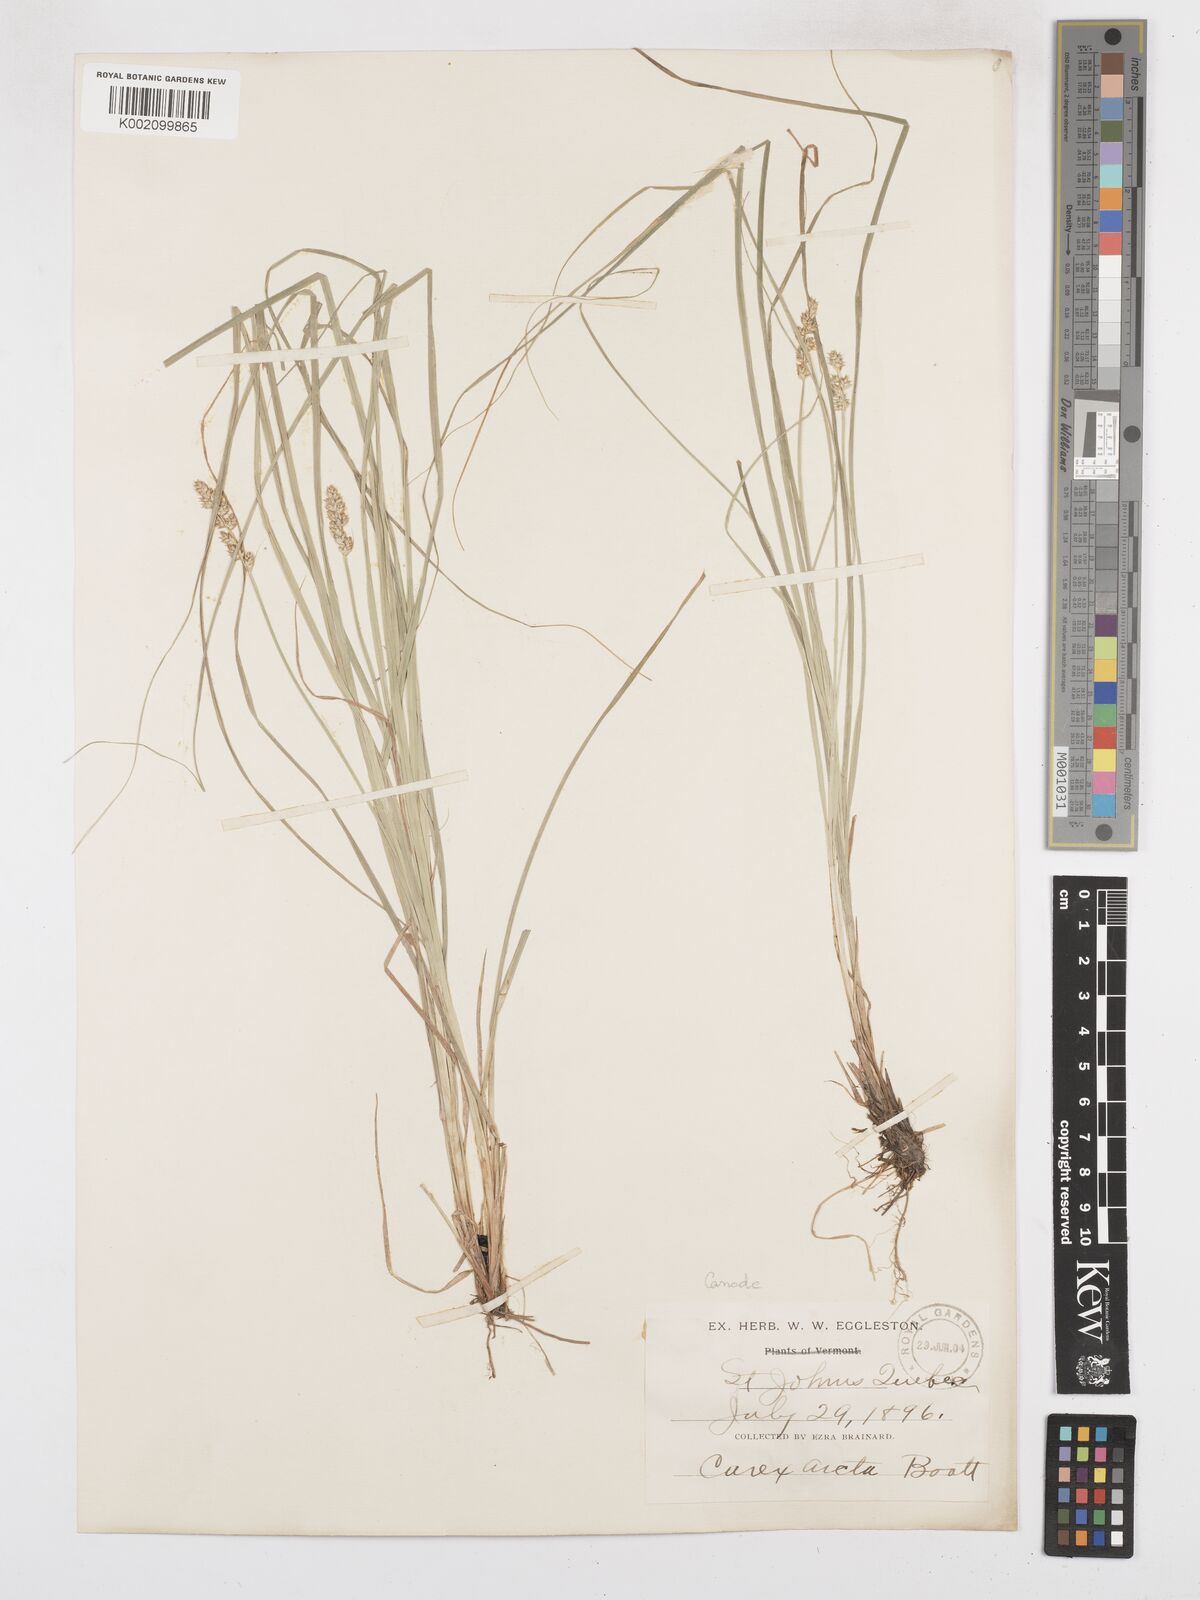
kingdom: Plantae
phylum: Tracheophyta
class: Liliopsida
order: Poales
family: Cyperaceae
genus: Carex
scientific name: Carex arcta
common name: Bear sedge
